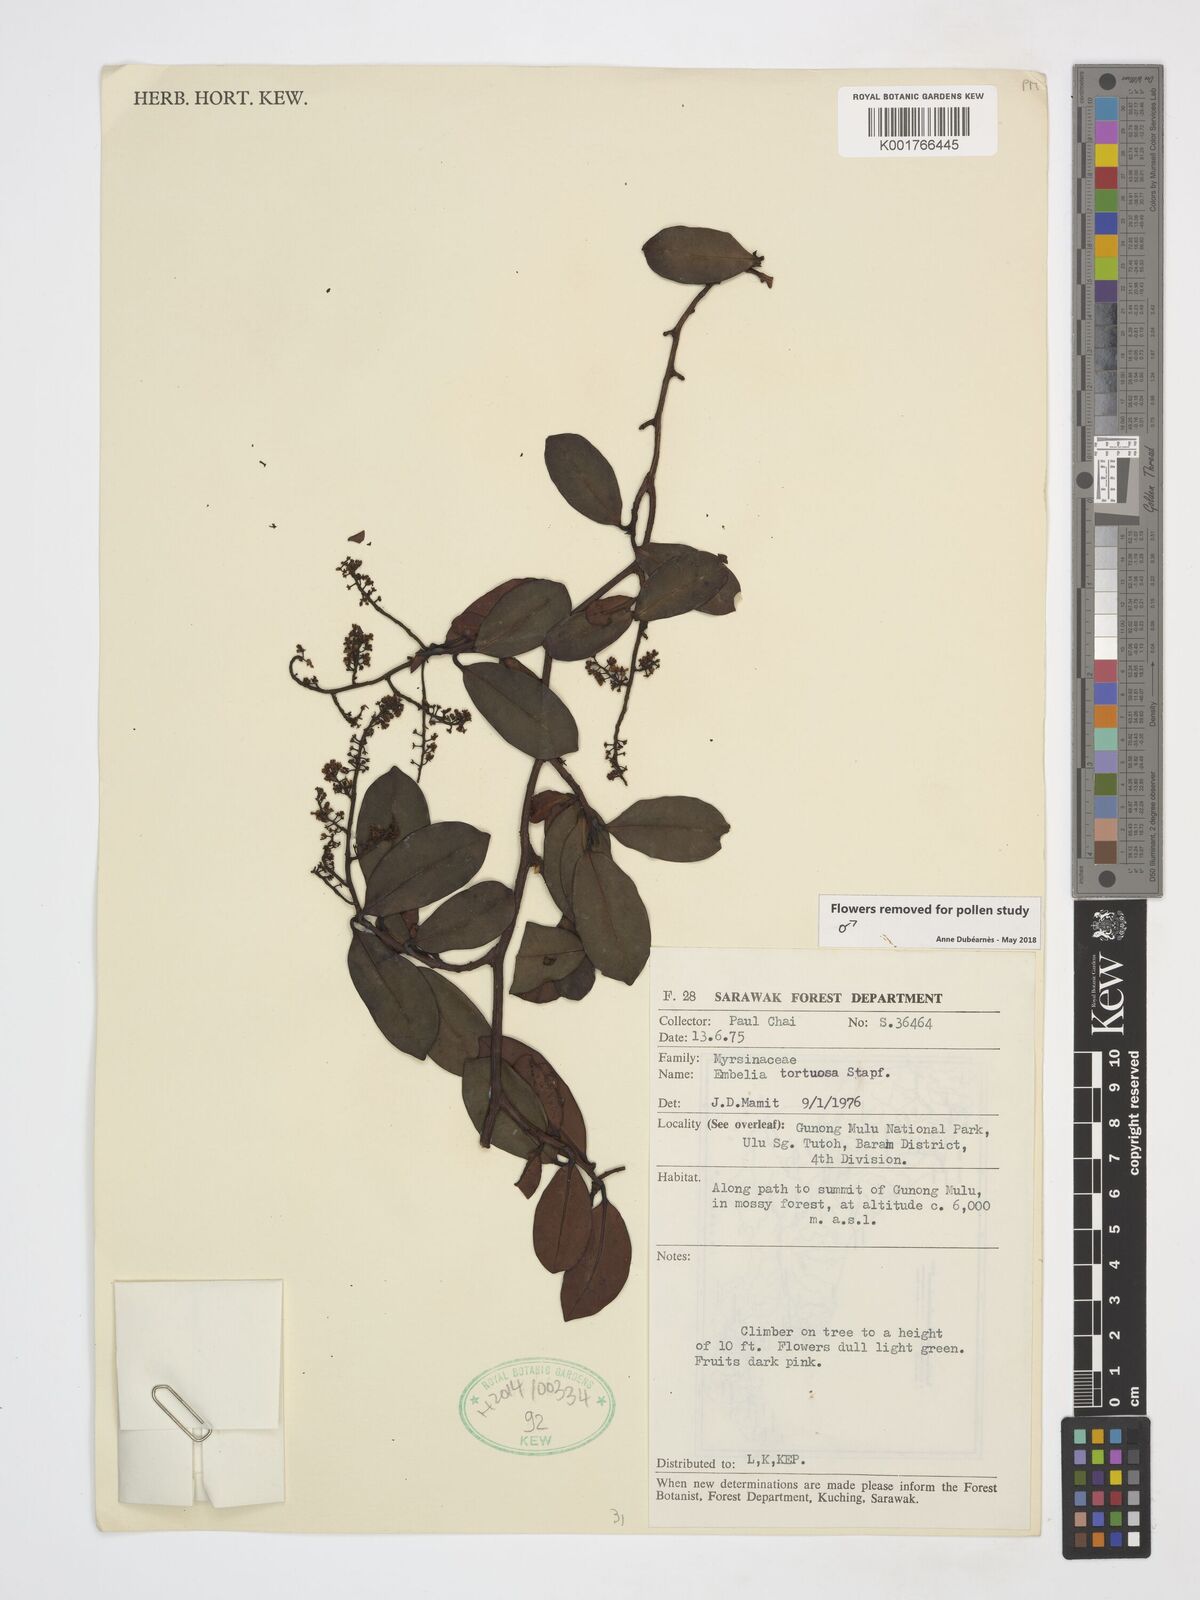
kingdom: Plantae
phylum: Tracheophyta
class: Magnoliopsida
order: Ericales
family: Primulaceae
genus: Embelia
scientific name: Embelia tortuosa
